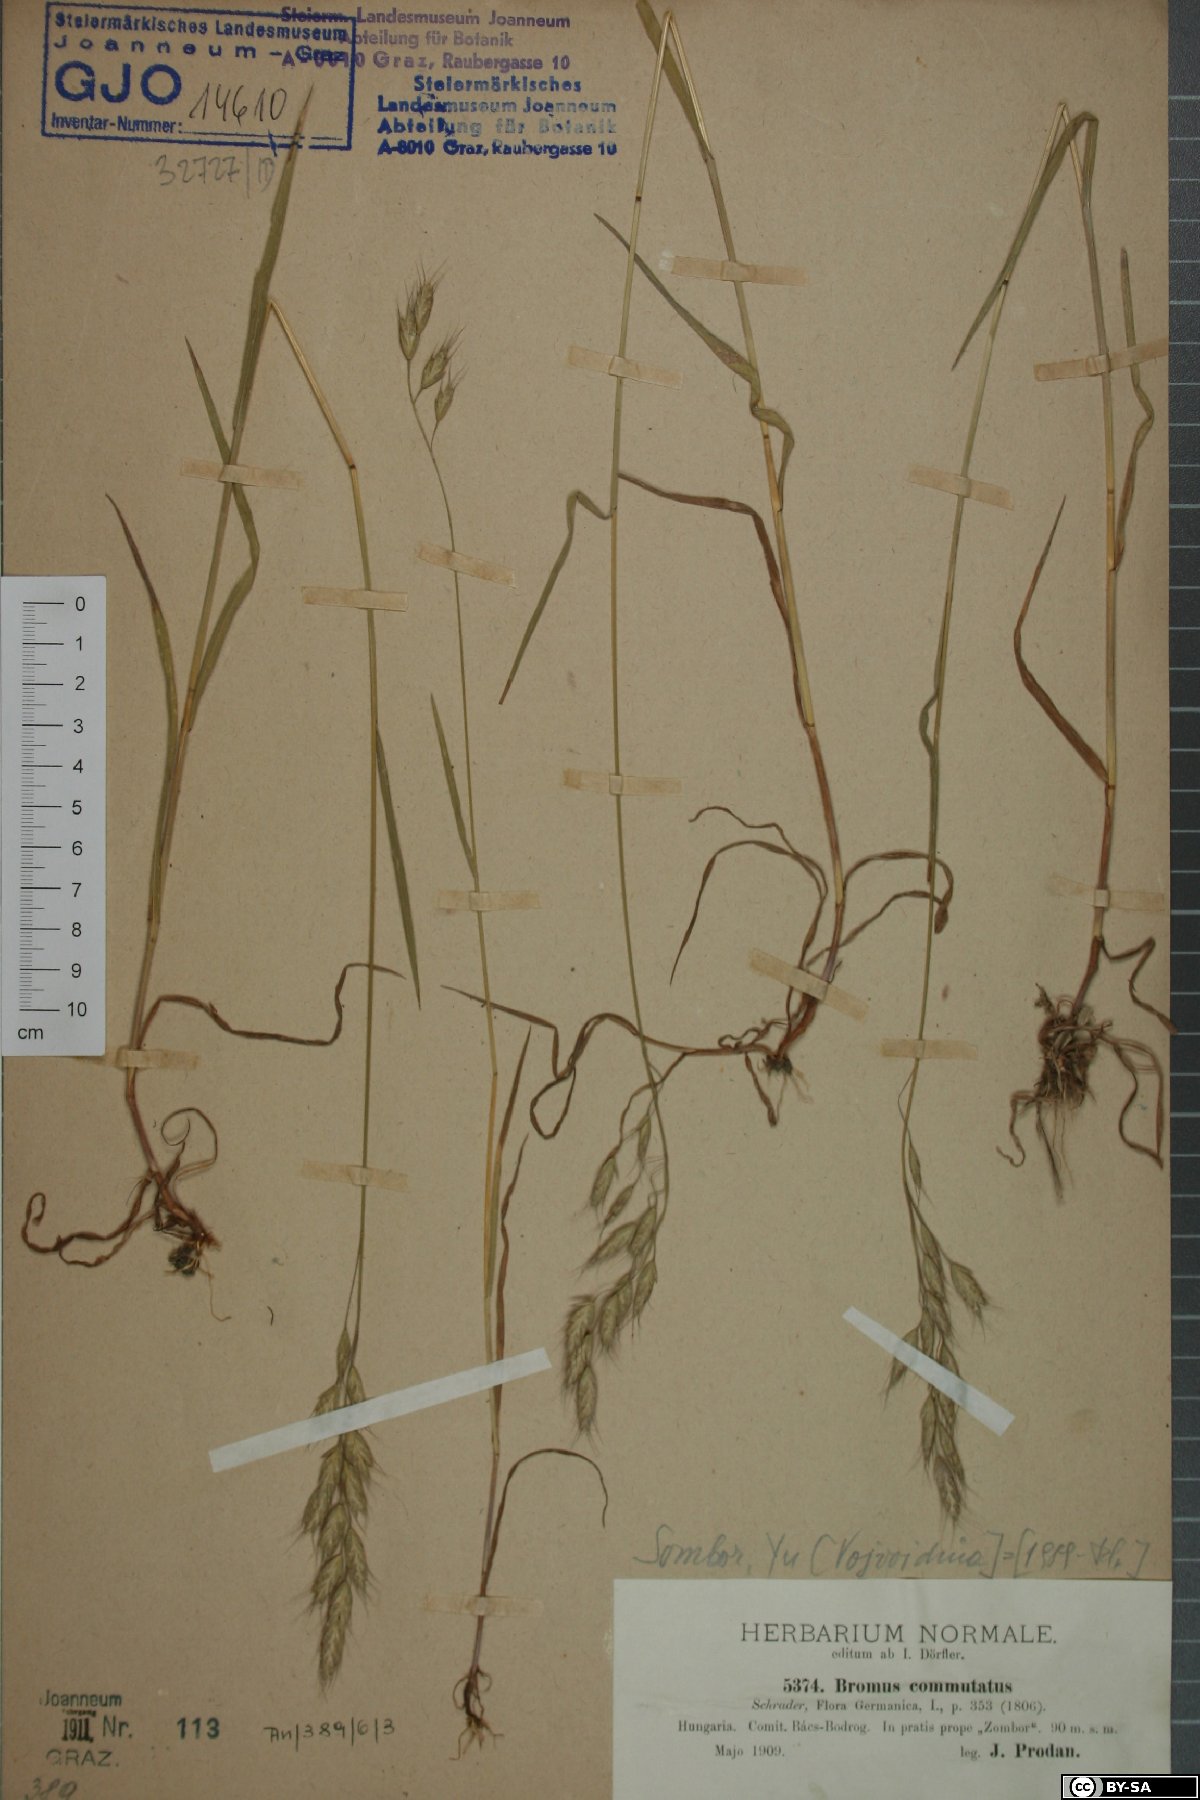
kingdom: Plantae
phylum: Tracheophyta
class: Liliopsida
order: Poales
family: Poaceae
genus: Bromus
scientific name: Bromus commutatus
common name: Meadow brome
